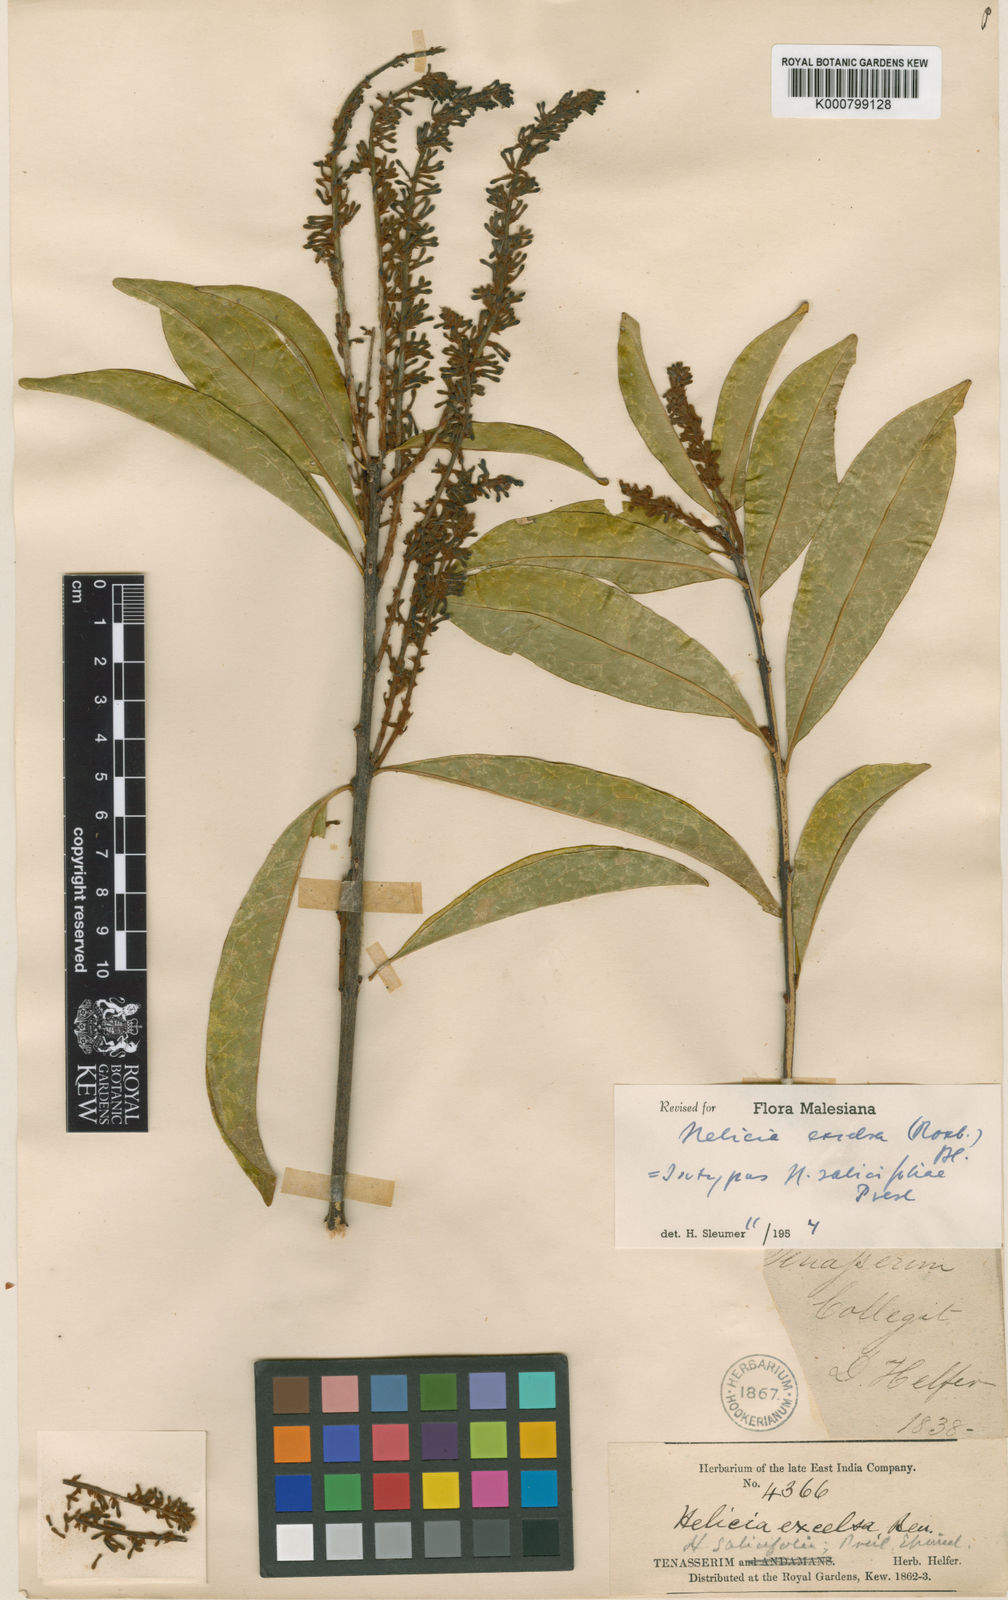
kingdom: Plantae
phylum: Tracheophyta
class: Magnoliopsida
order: Proteales
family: Proteaceae
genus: Helicia
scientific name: Helicia excelsa
